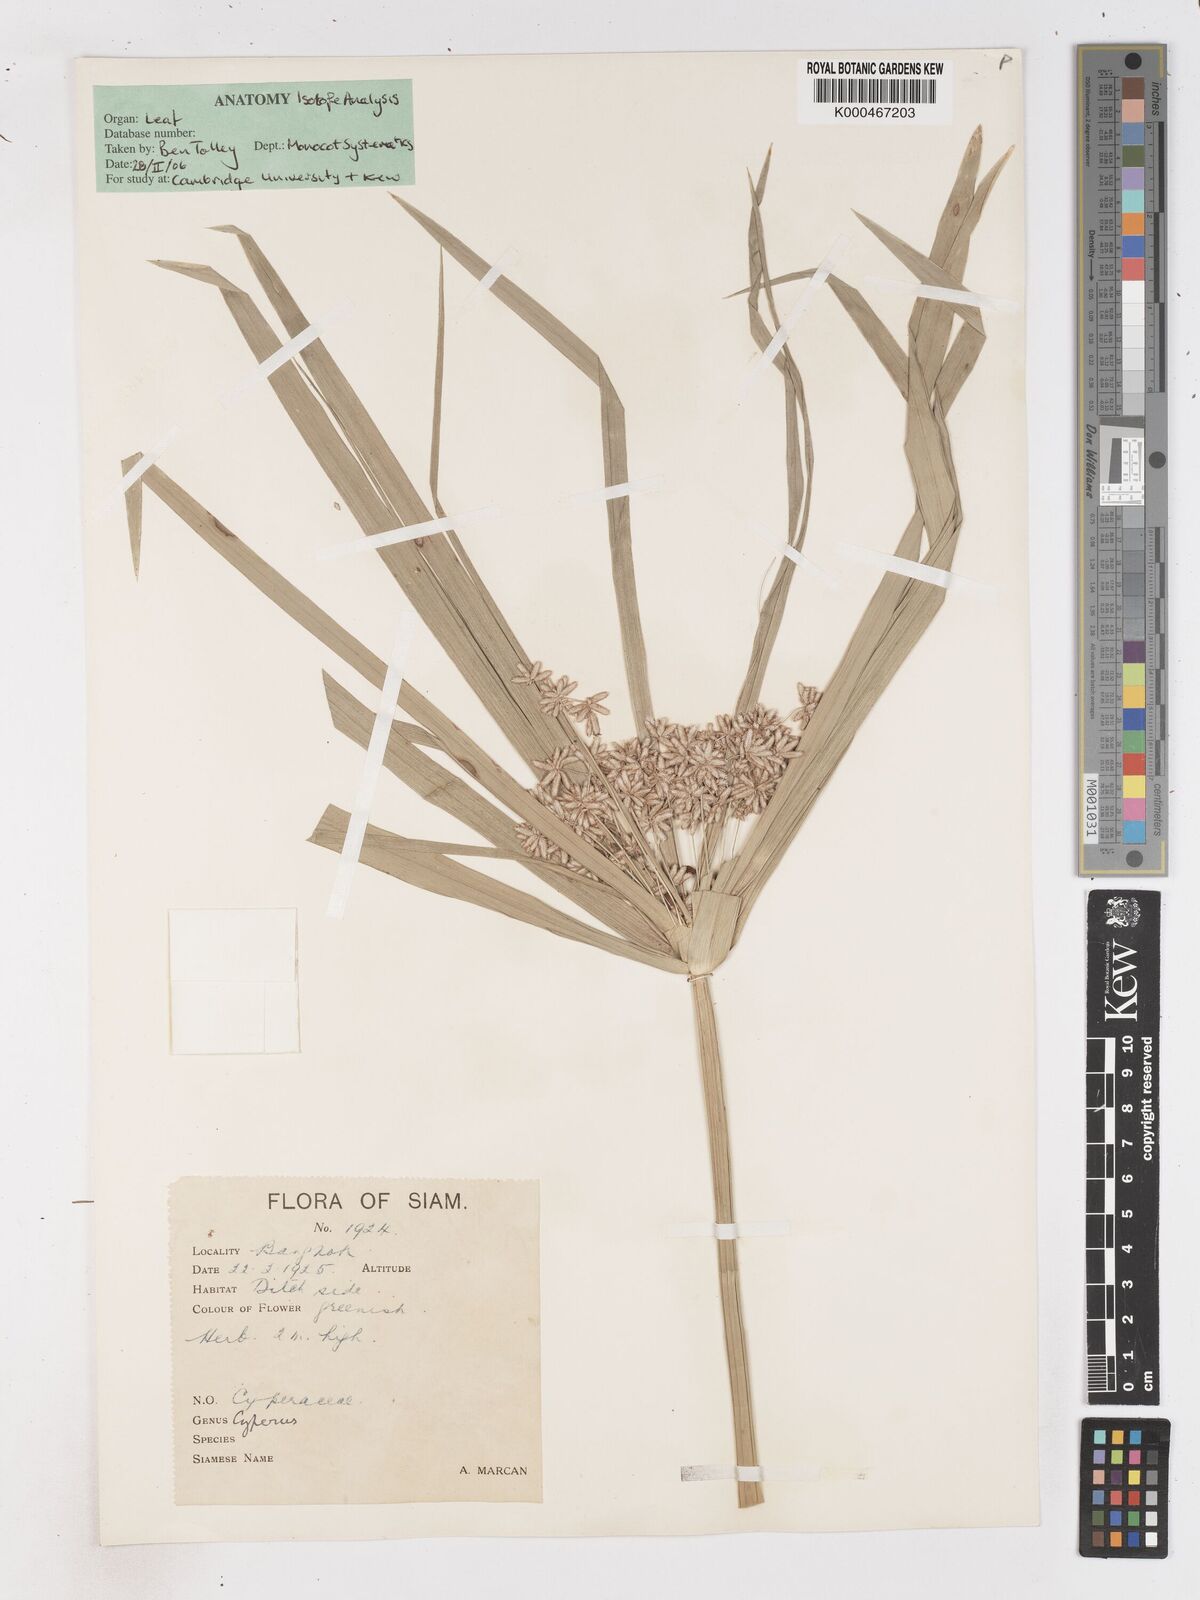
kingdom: Plantae
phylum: Tracheophyta
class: Liliopsida
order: Poales
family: Cyperaceae
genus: Cyperus
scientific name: Cyperus platystylis
